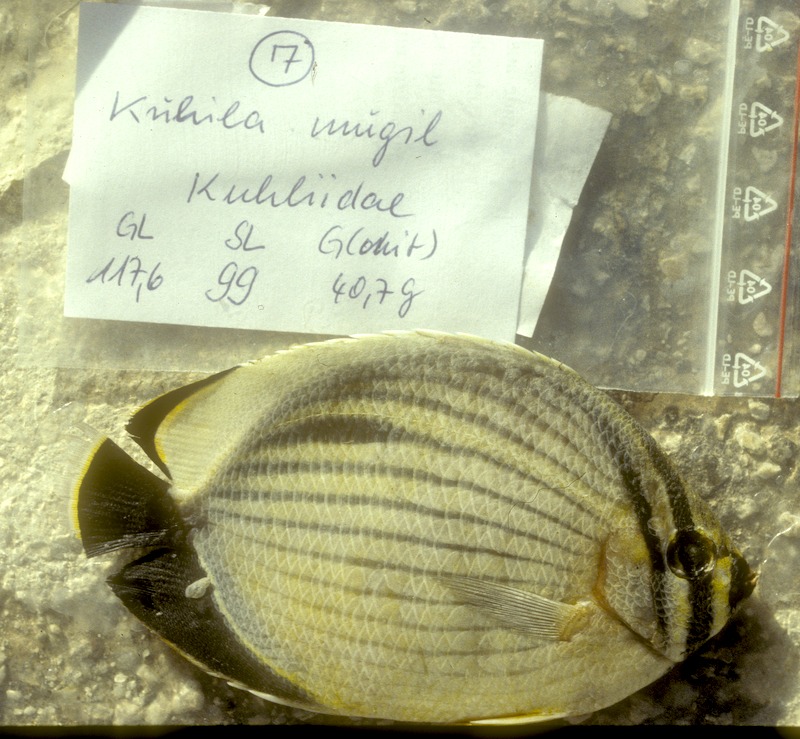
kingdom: Animalia
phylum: Chordata
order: Perciformes
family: Kuhliidae
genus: Kuhlia
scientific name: Kuhlia mugil
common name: Barred flagtail
